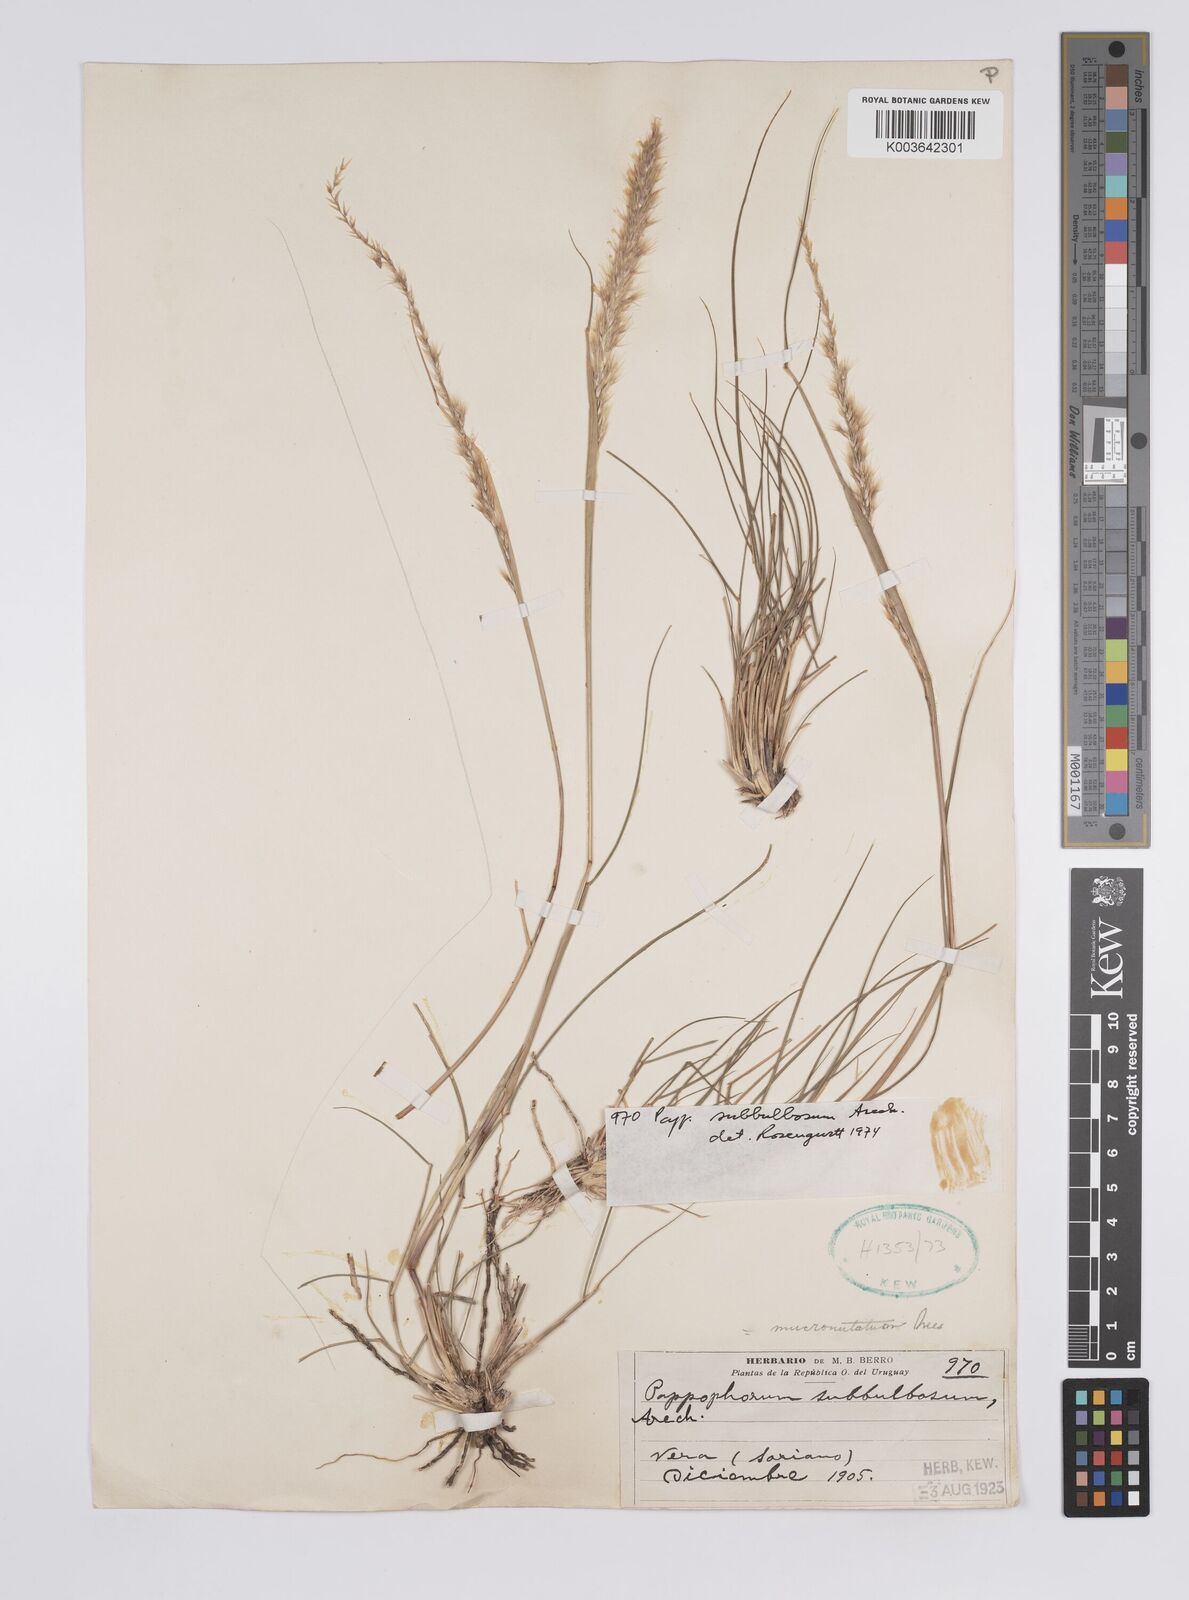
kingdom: Plantae
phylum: Tracheophyta
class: Liliopsida
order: Poales
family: Poaceae
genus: Pappophorum
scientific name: Pappophorum mucronulatum
